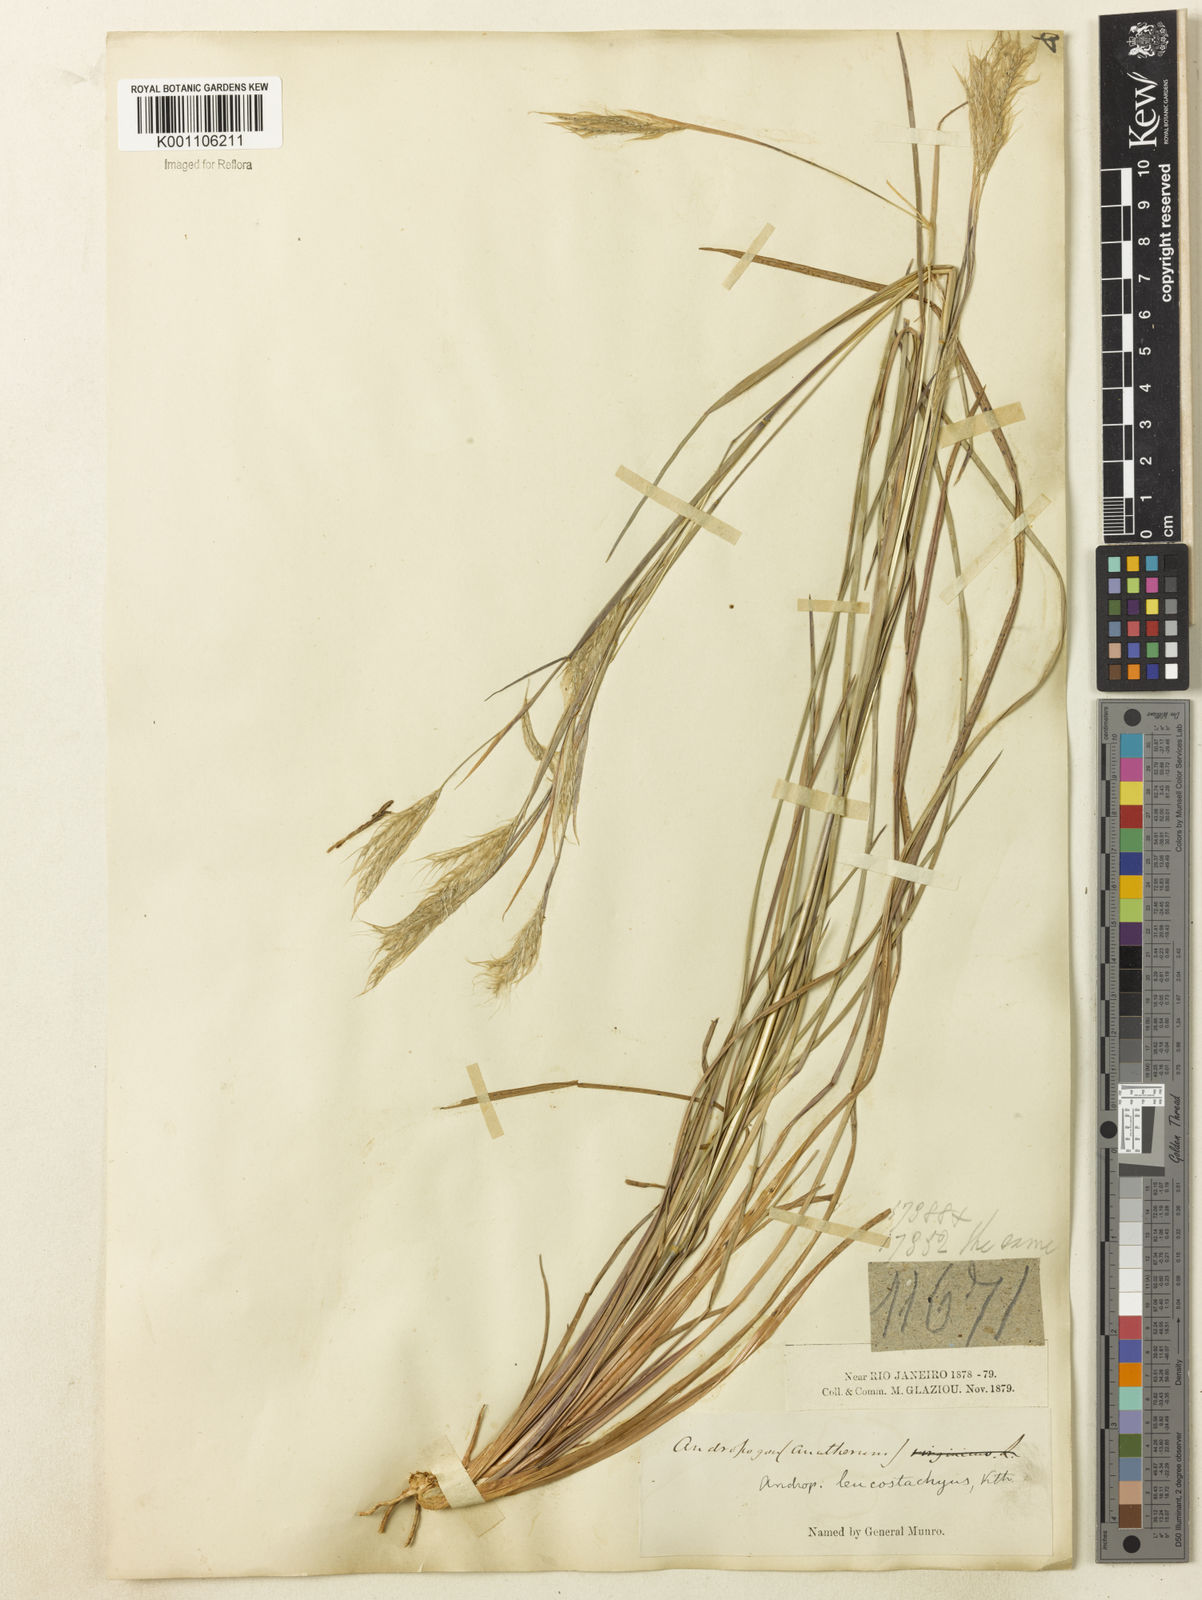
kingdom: Plantae
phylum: Tracheophyta
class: Liliopsida
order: Poales
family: Poaceae
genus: Andropogon
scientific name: Andropogon leucostachyus
